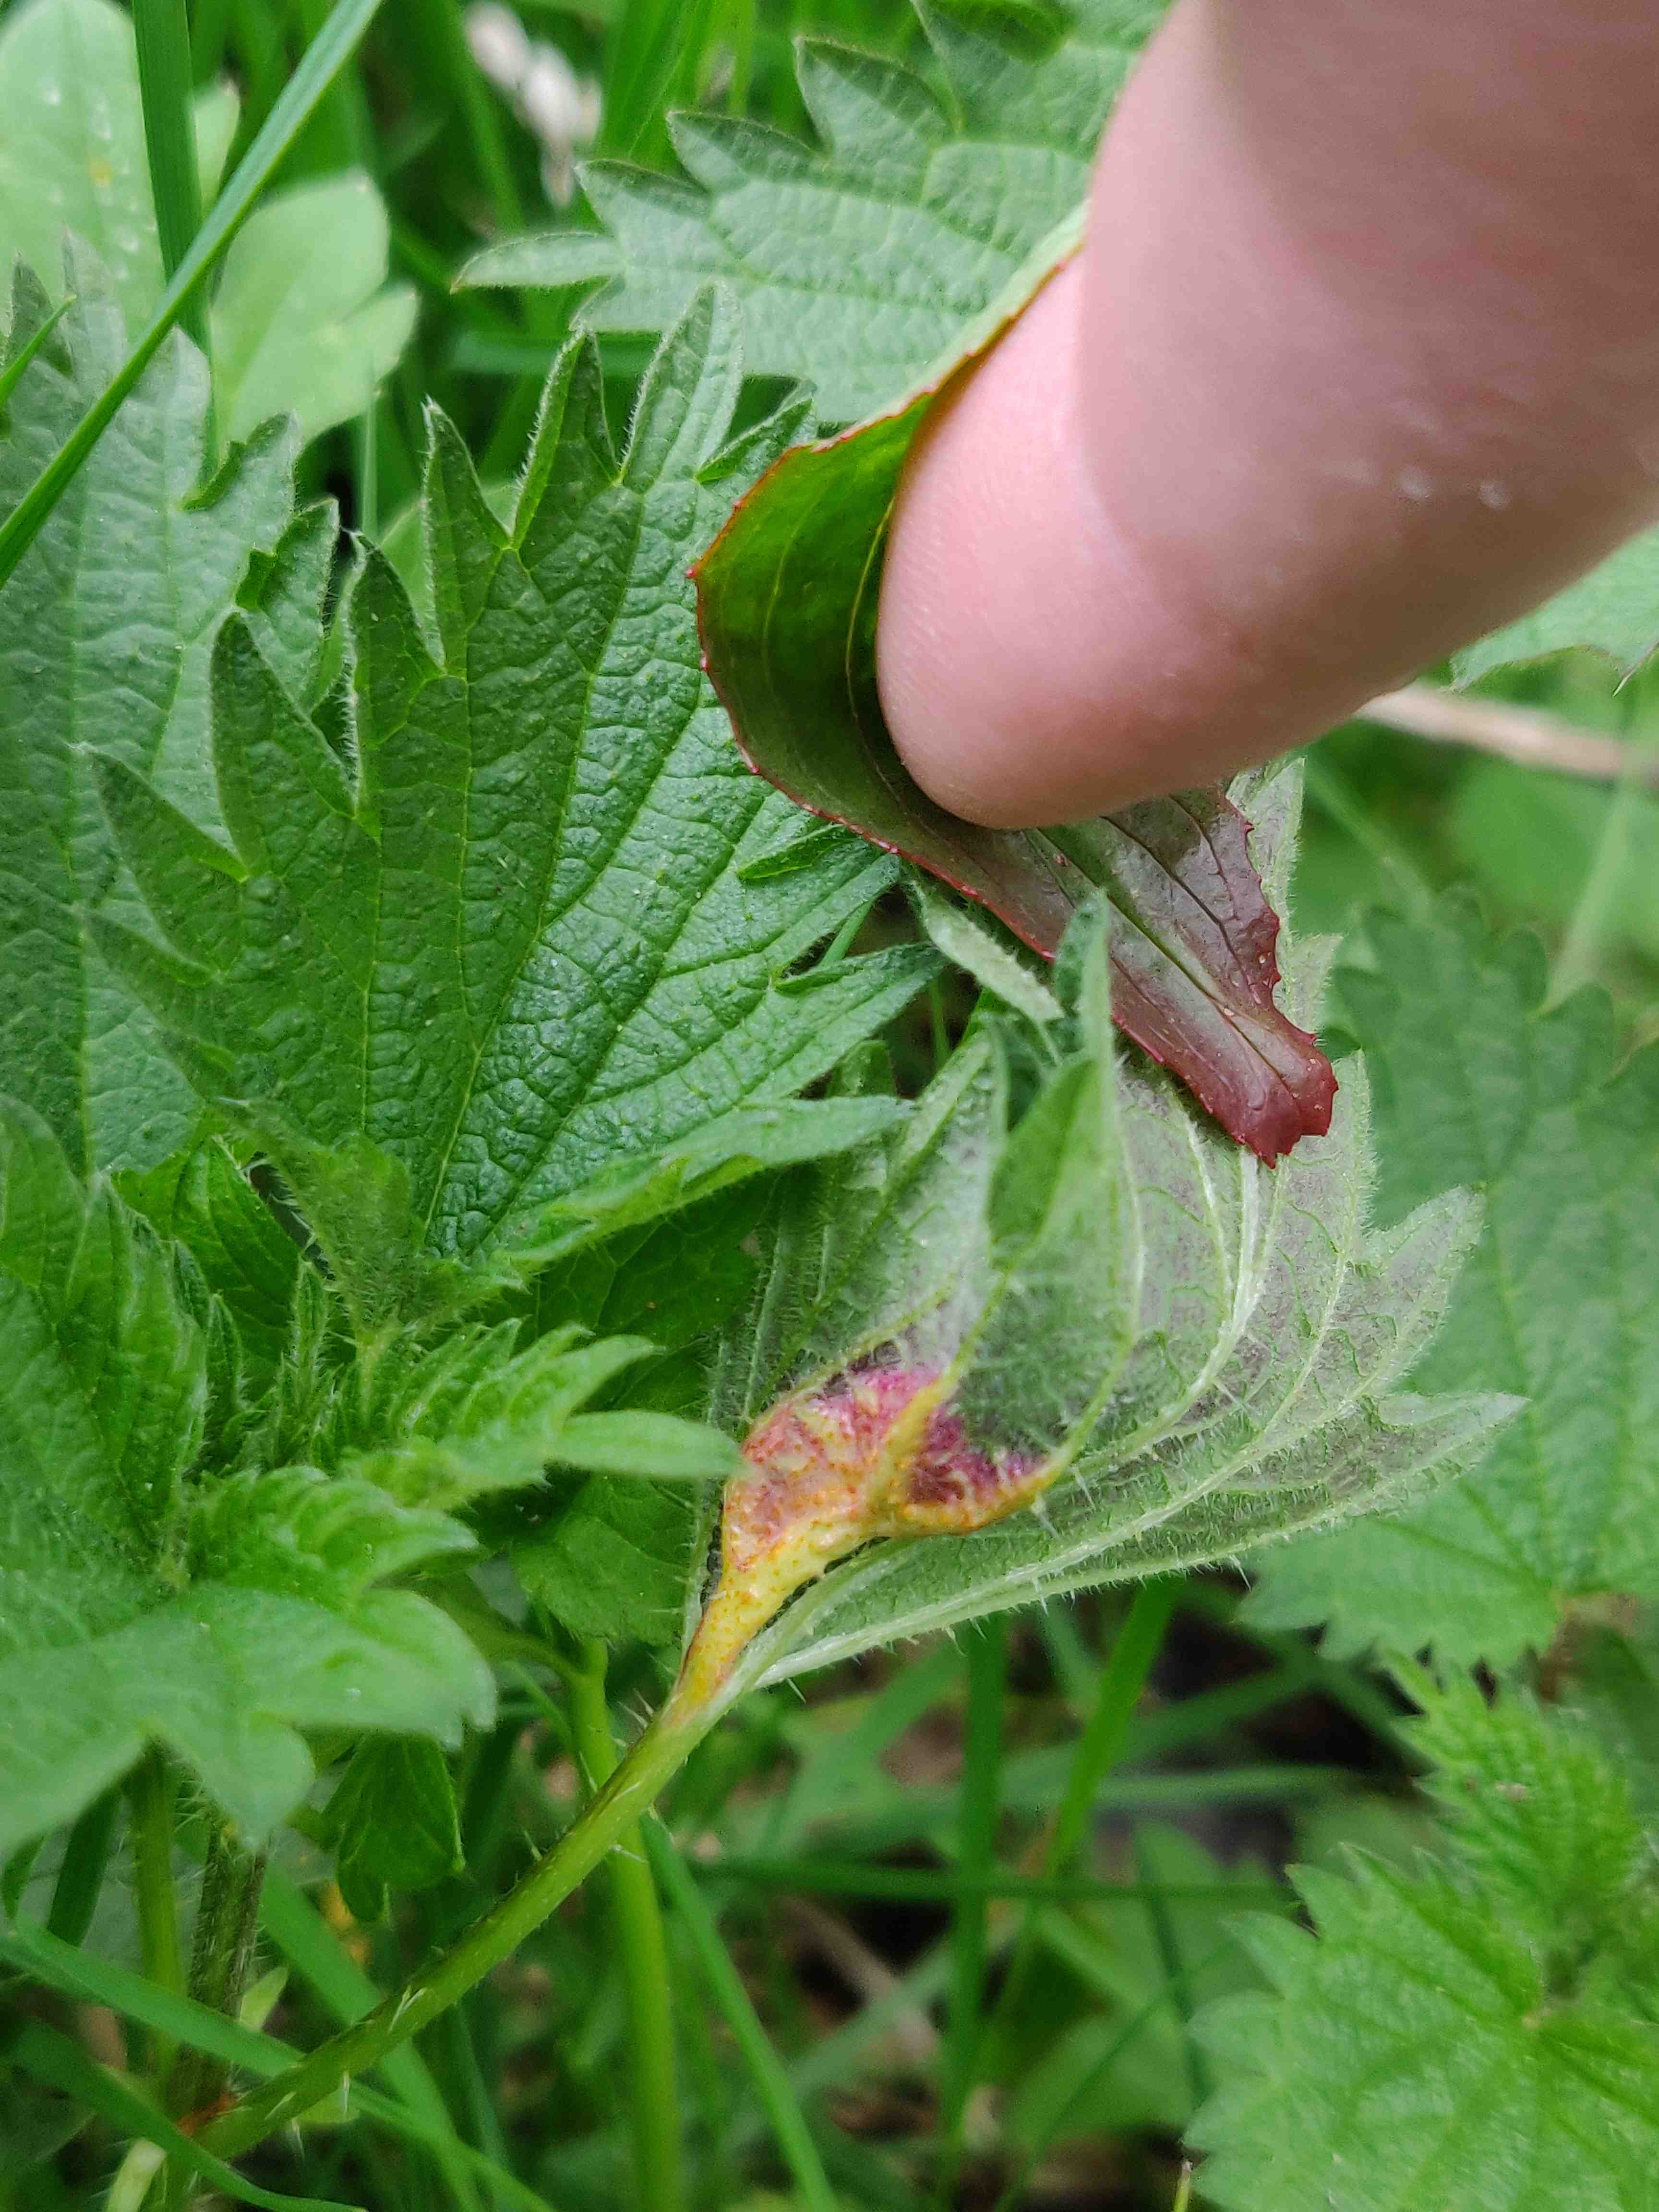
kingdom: Fungi
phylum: Basidiomycota
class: Pucciniomycetes
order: Pucciniales
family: Pucciniaceae
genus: Puccinia
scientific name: Puccinia urticata
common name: nældegalle-tvecellerust
